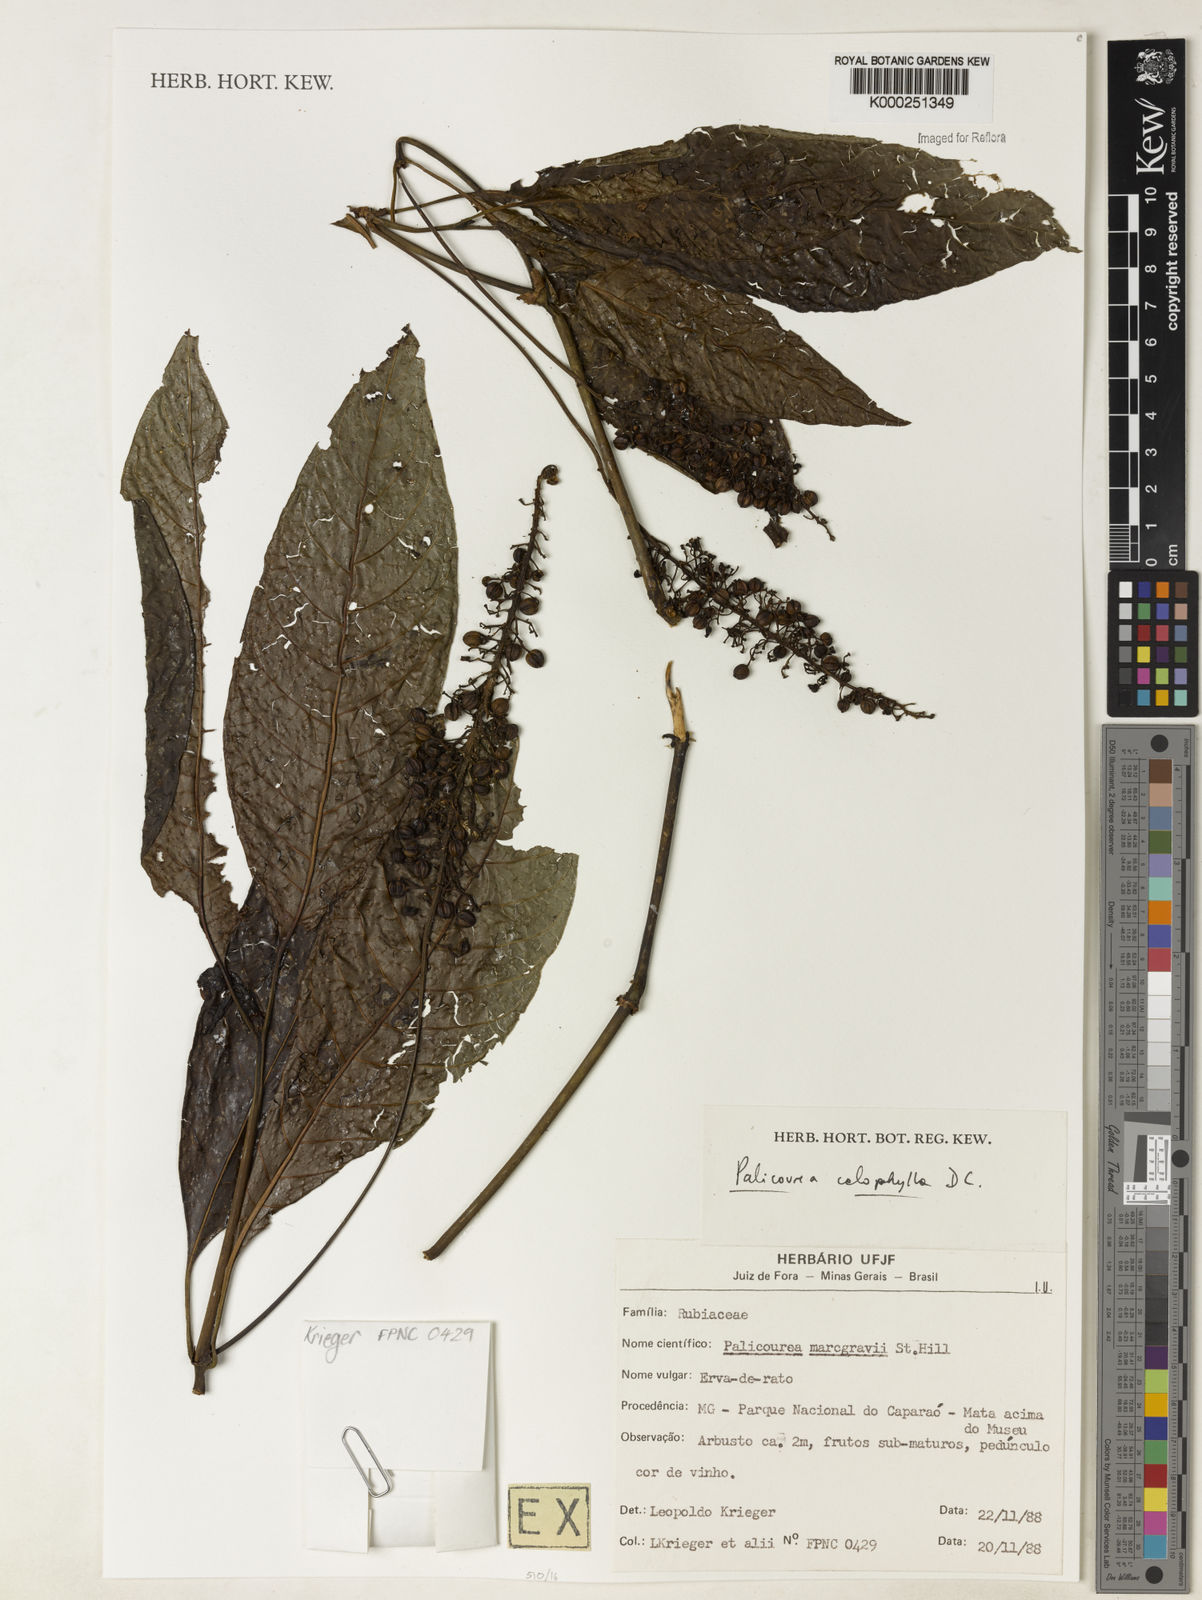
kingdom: Plantae
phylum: Tracheophyta
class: Magnoliopsida
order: Gentianales
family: Rubiaceae
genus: Palicourea
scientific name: Palicourea
